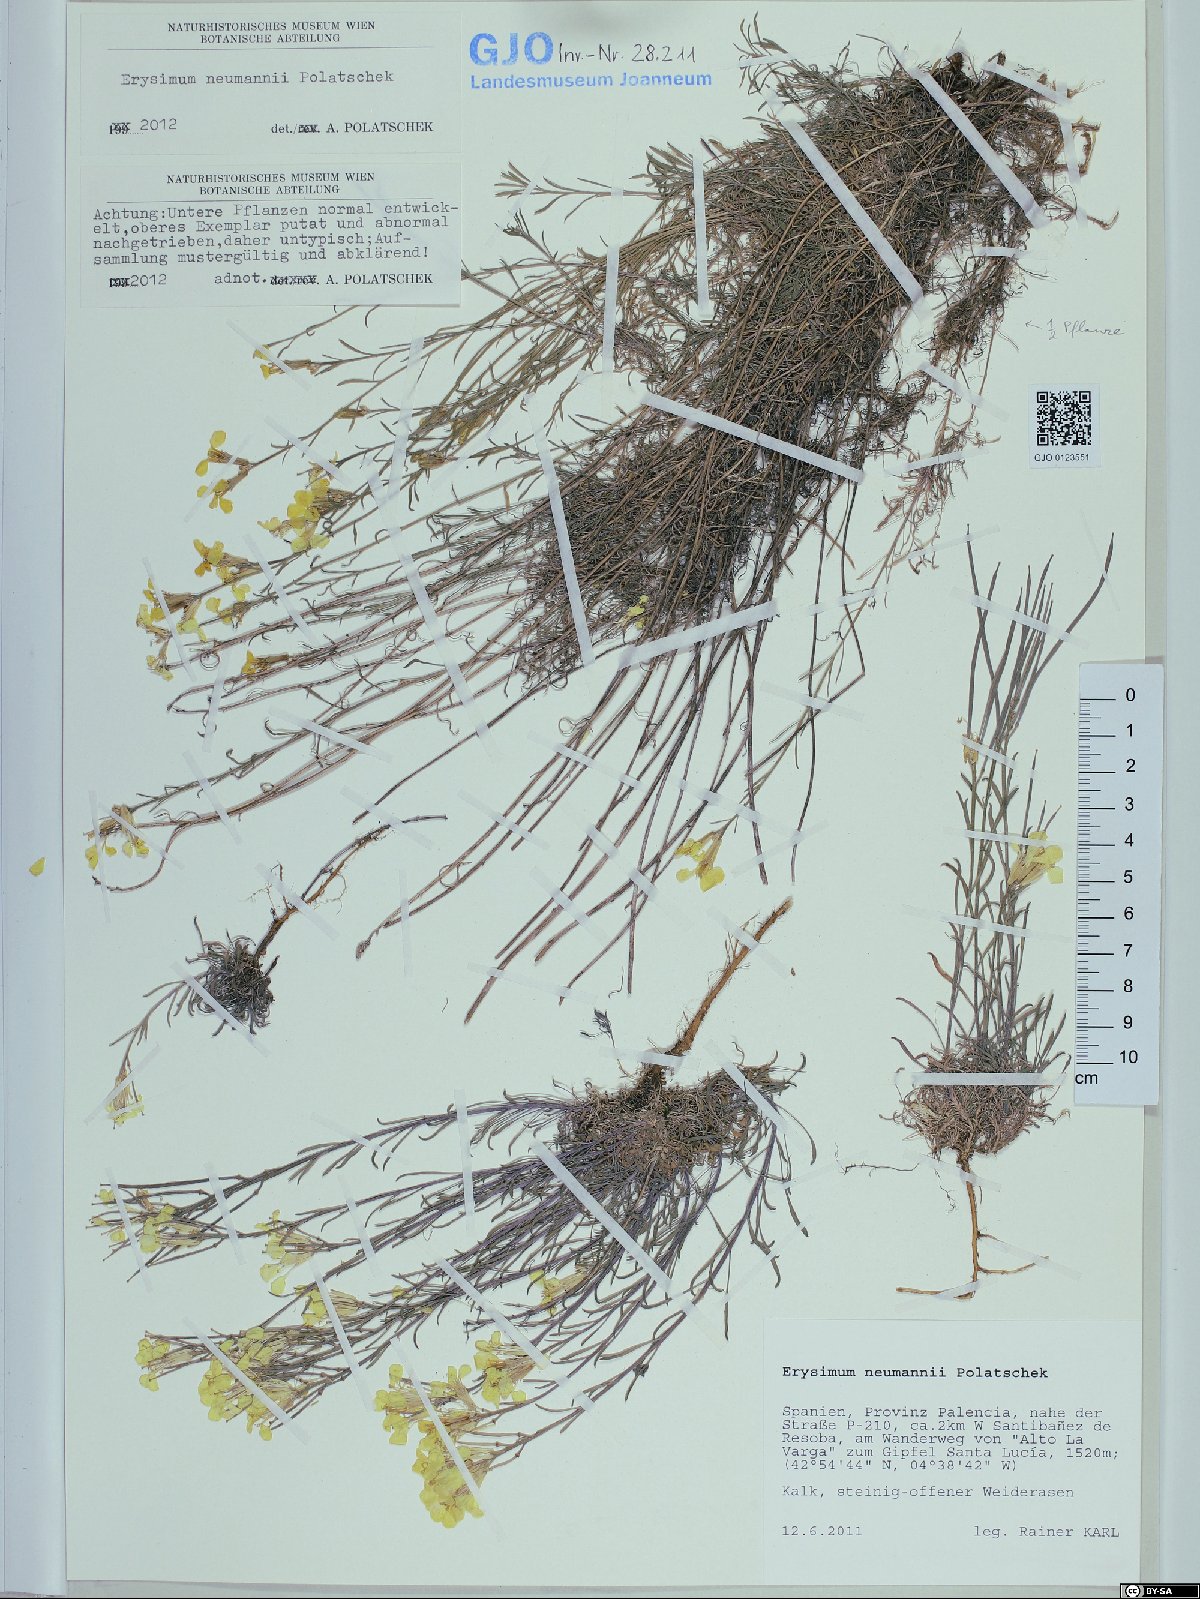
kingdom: Plantae
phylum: Tracheophyta
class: Magnoliopsida
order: Brassicales
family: Brassicaceae
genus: Erysimum
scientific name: Erysimum duriaei
